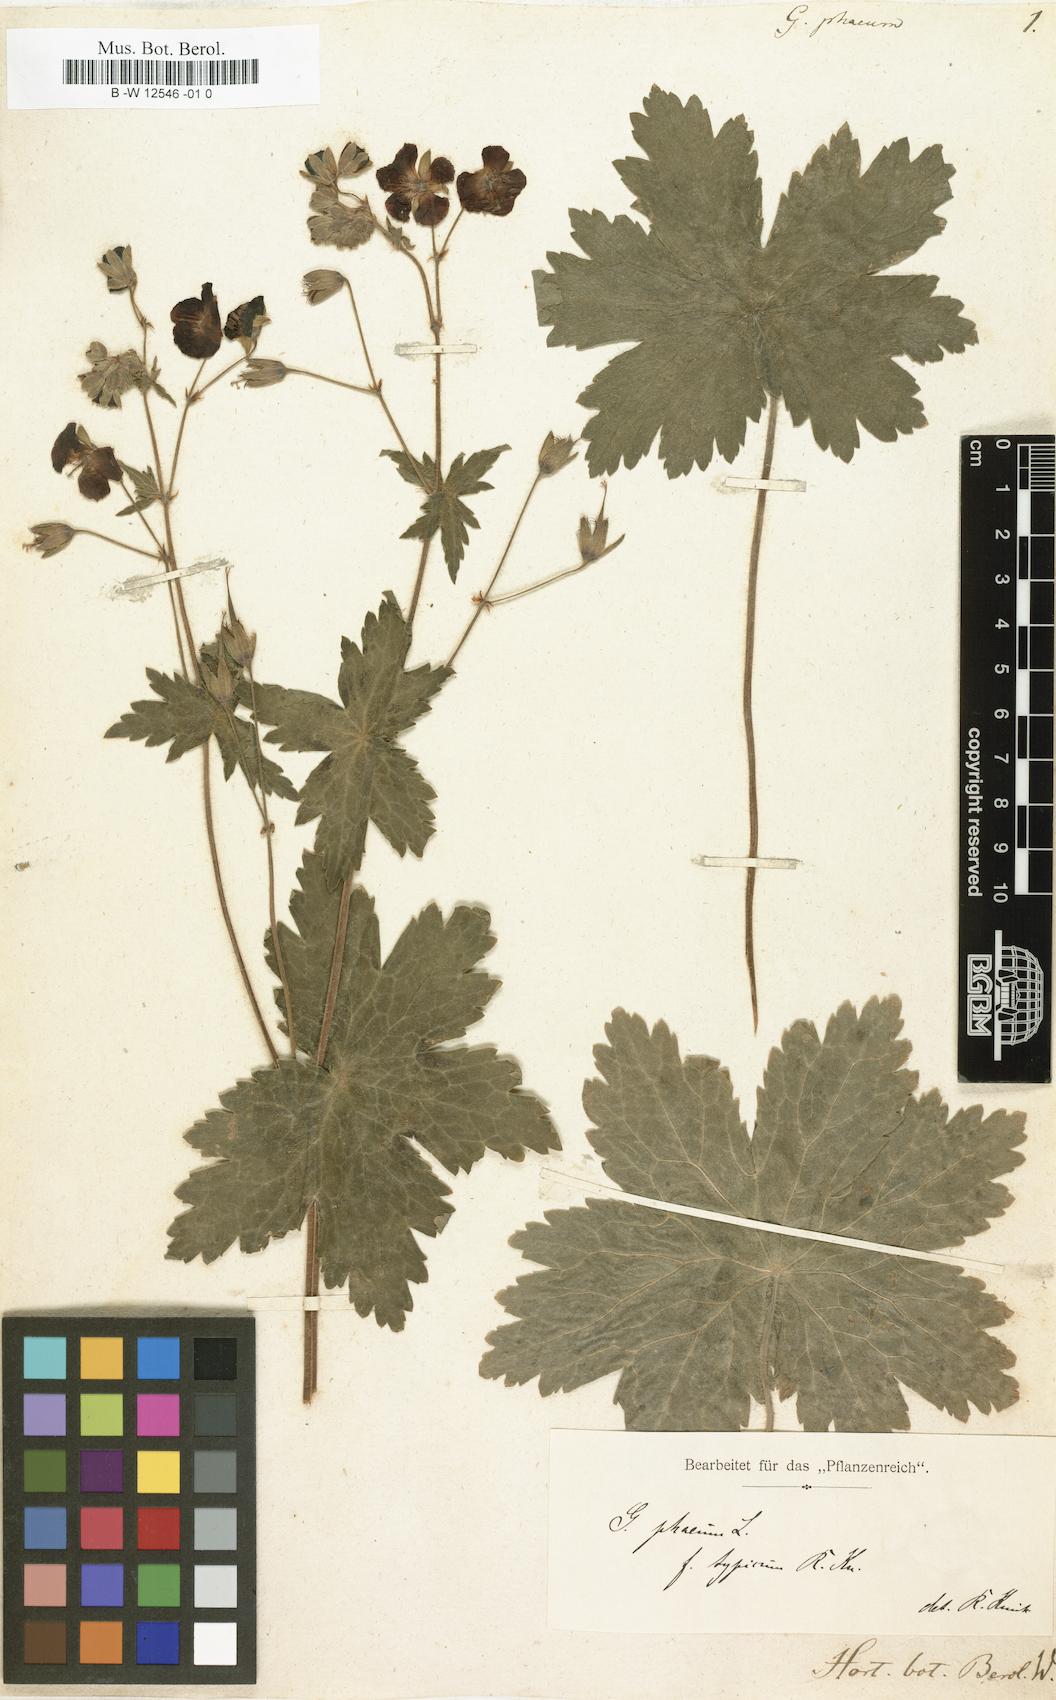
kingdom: Plantae
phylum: Tracheophyta
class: Magnoliopsida
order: Geraniales
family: Geraniaceae
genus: Geranium
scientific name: Geranium phaeum
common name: Dusky crane's-bill
